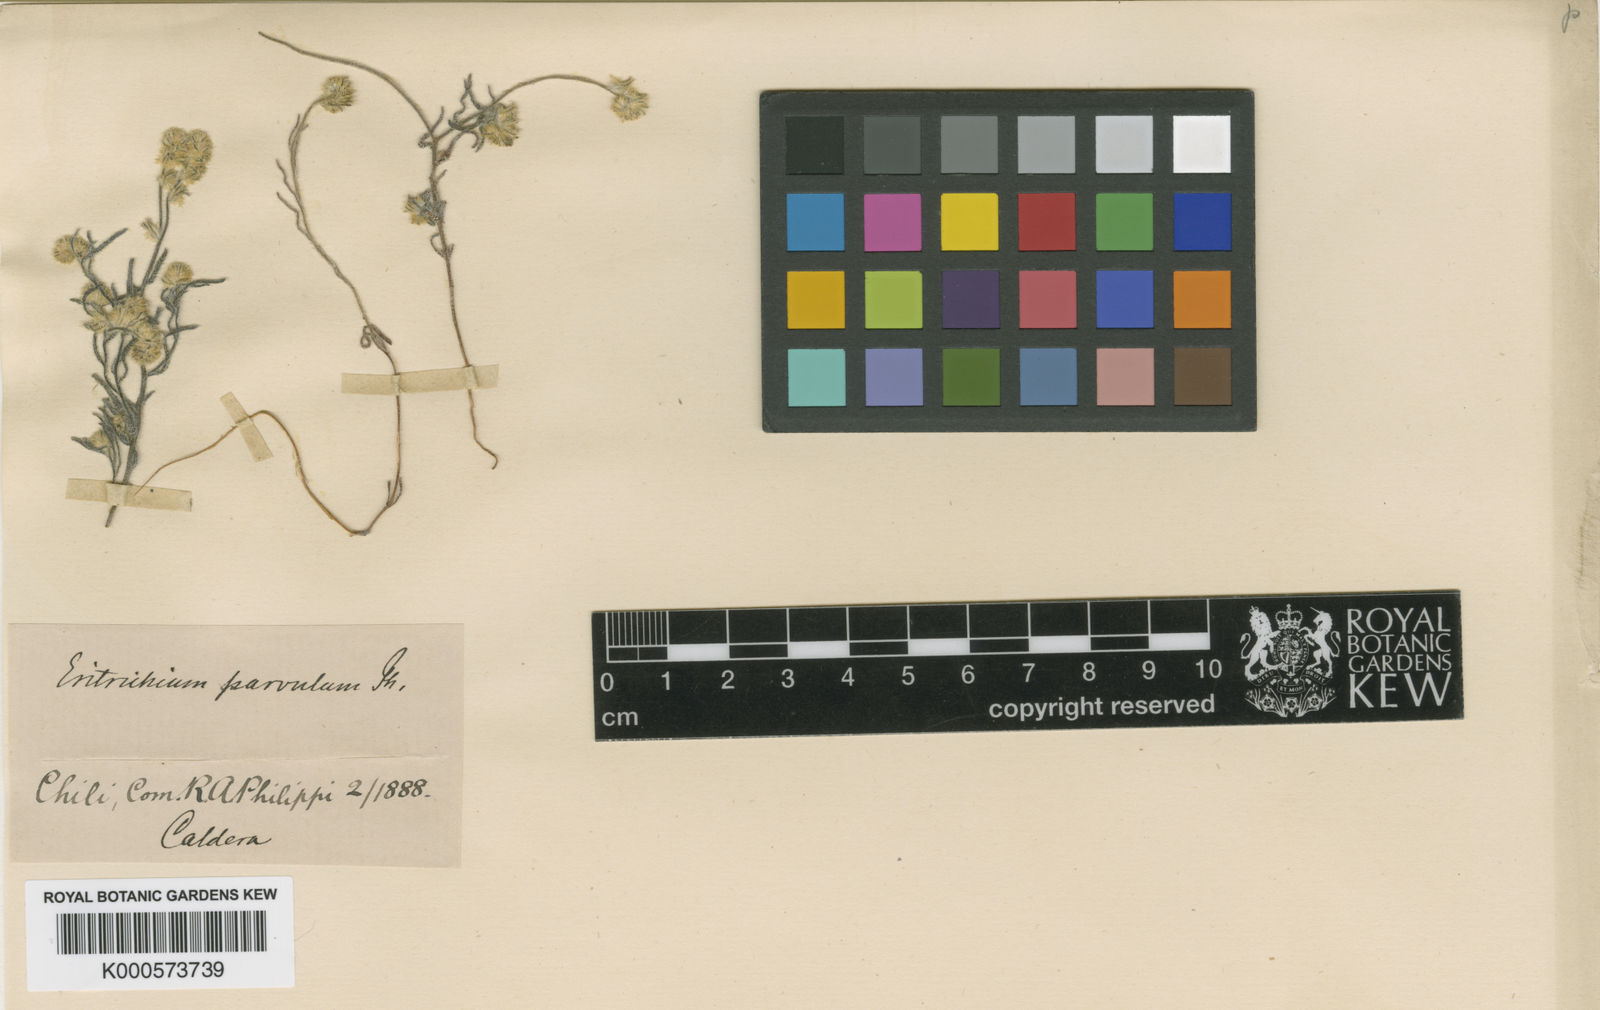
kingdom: Plantae
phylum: Tracheophyta
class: Magnoliopsida
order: Boraginales
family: Boraginaceae
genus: Cryptantha
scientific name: Cryptantha globulifera
